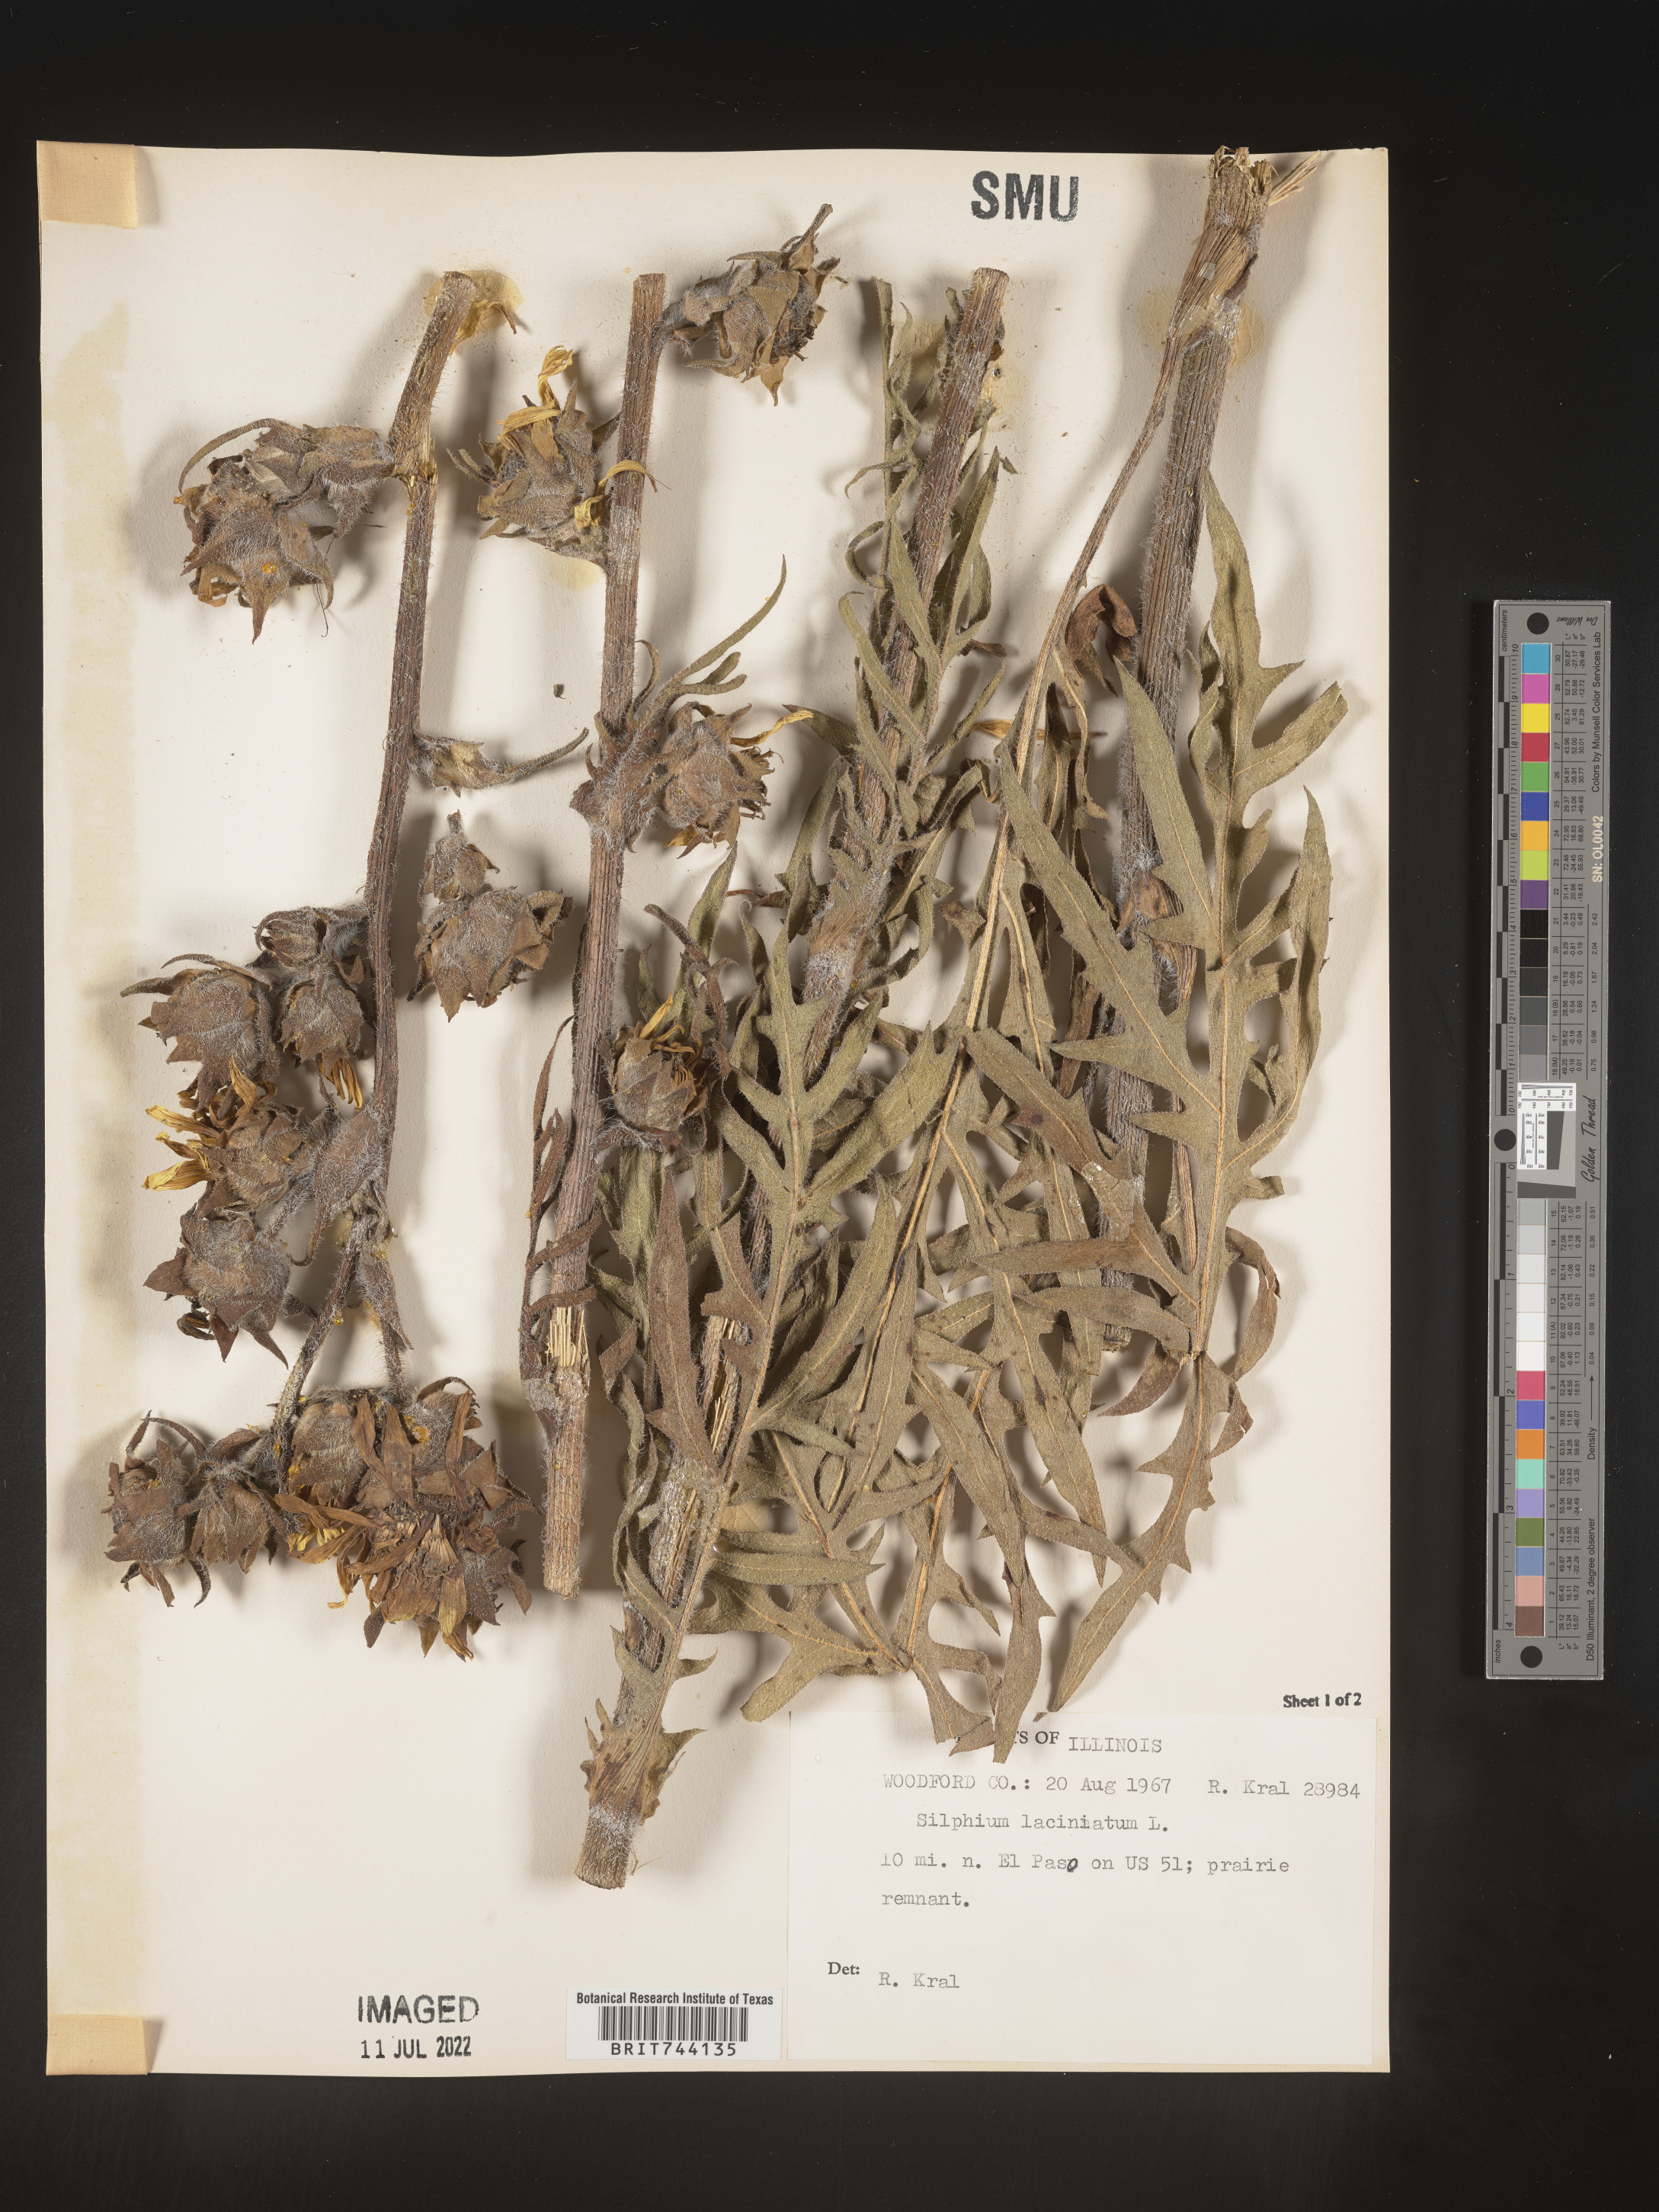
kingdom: Plantae
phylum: Tracheophyta
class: Magnoliopsida
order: Asterales
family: Asteraceae
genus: Silphium
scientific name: Silphium laciniatum
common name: Polarplant
